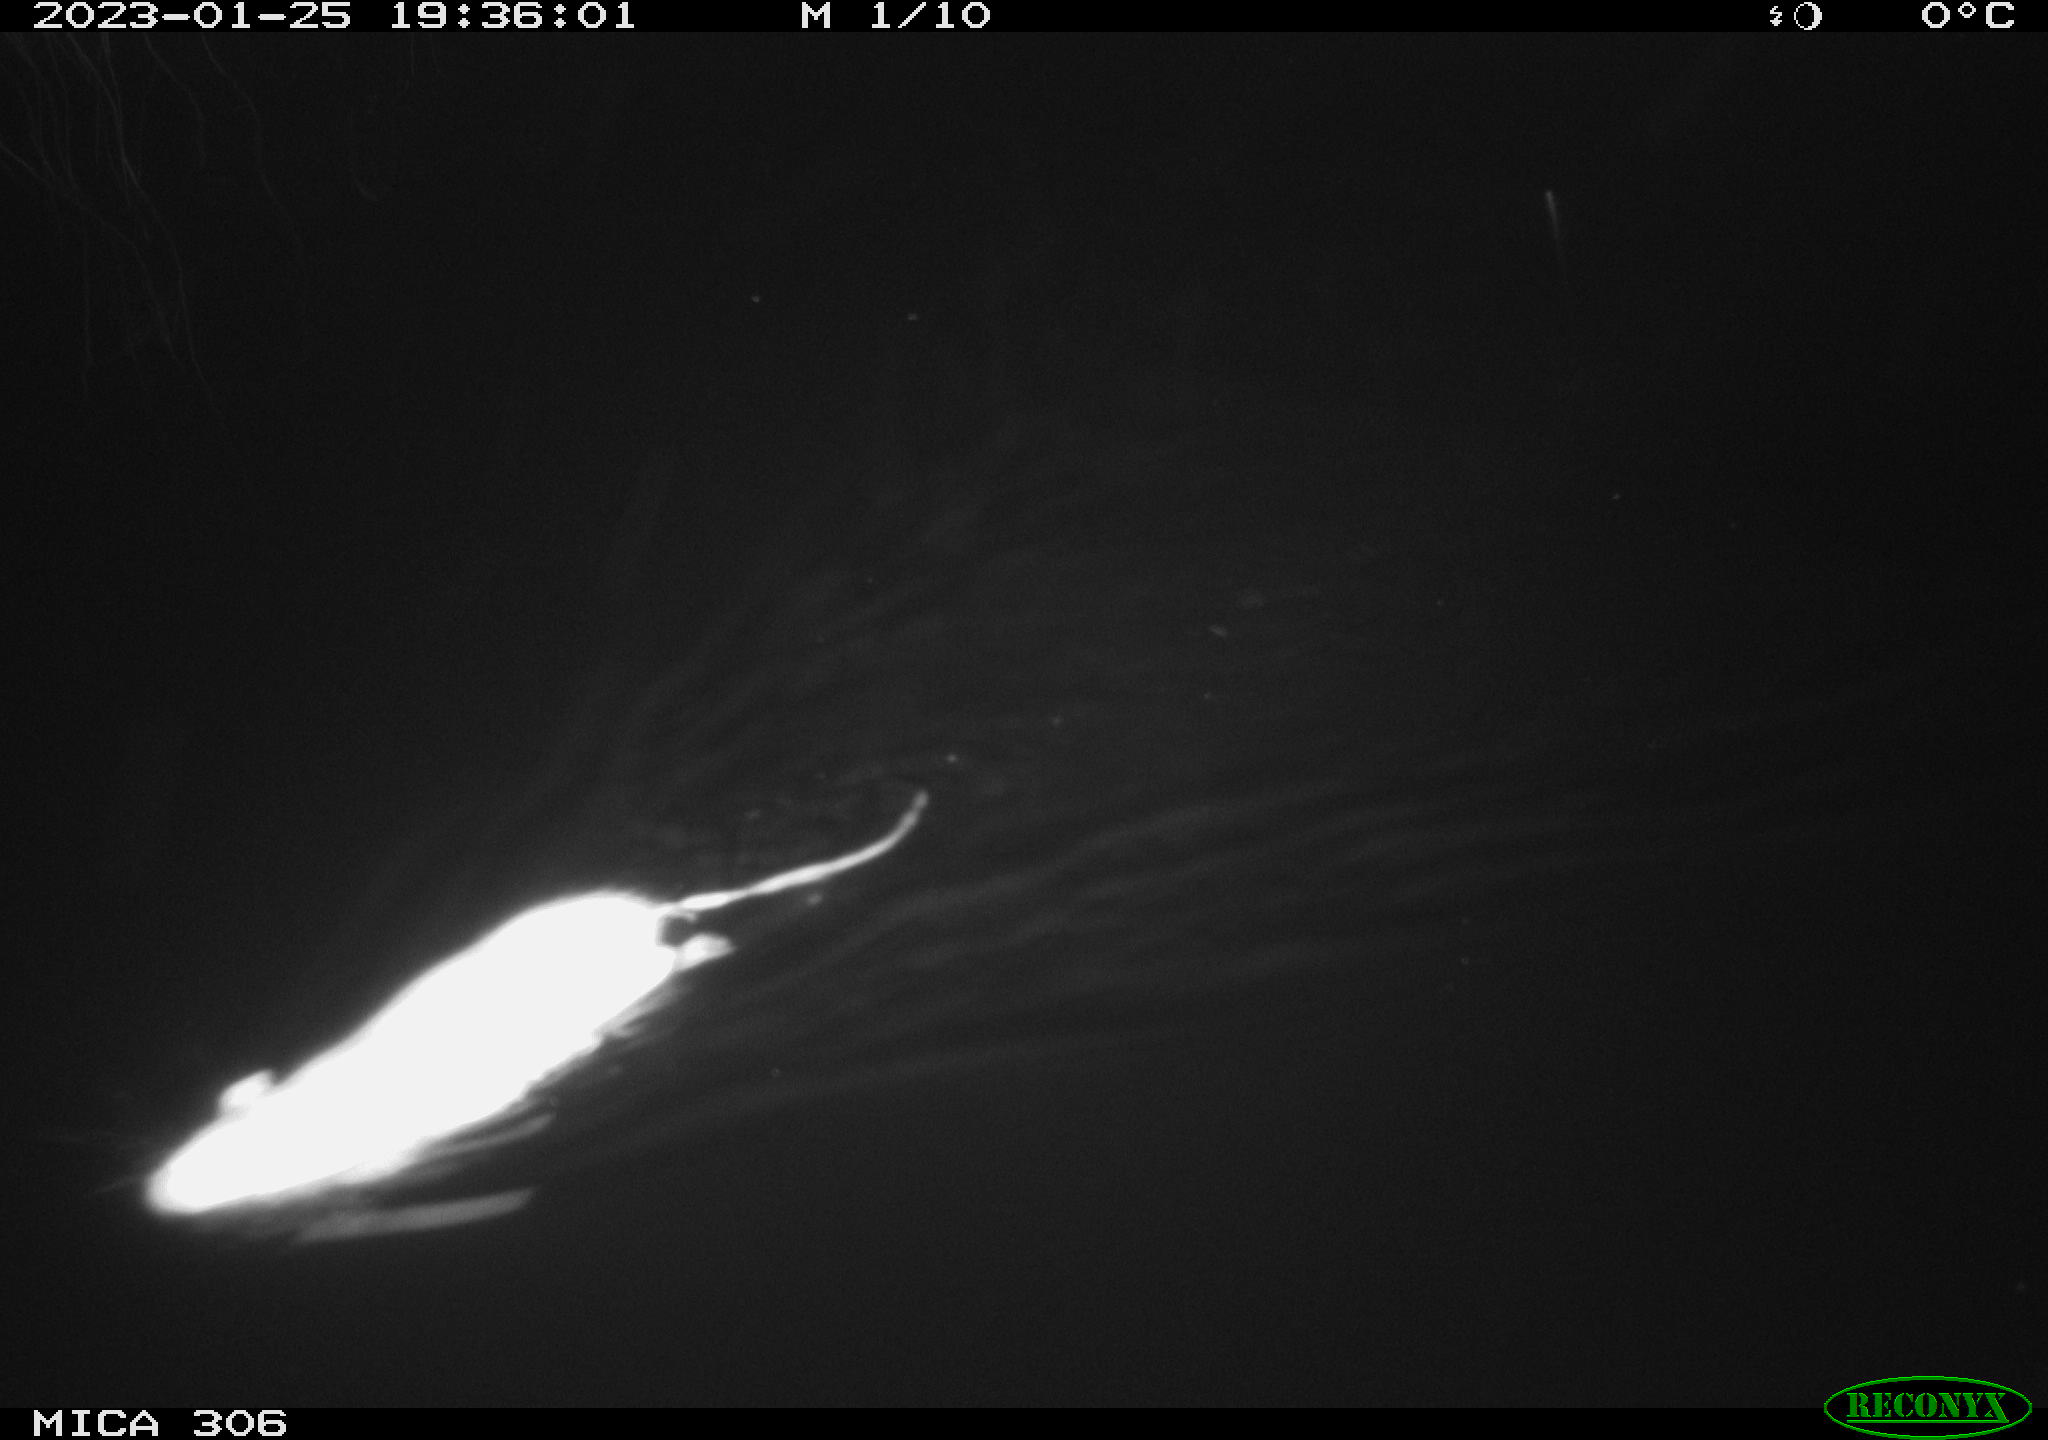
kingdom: Animalia
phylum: Chordata
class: Mammalia
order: Rodentia
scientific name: Rodentia
